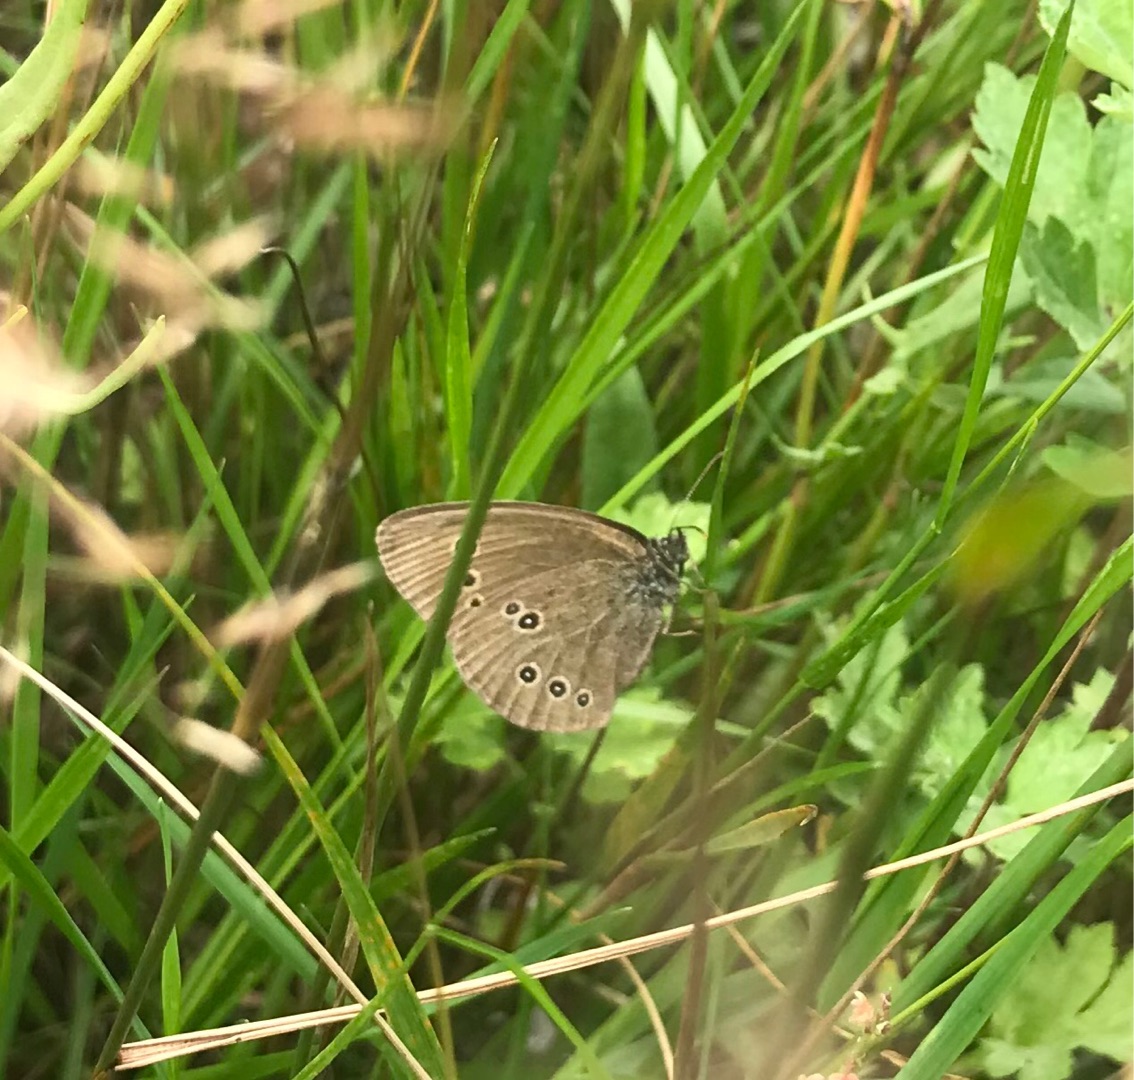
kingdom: Animalia
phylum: Arthropoda
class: Insecta
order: Lepidoptera
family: Nymphalidae
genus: Aphantopus
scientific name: Aphantopus hyperantus
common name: Engrandøje
